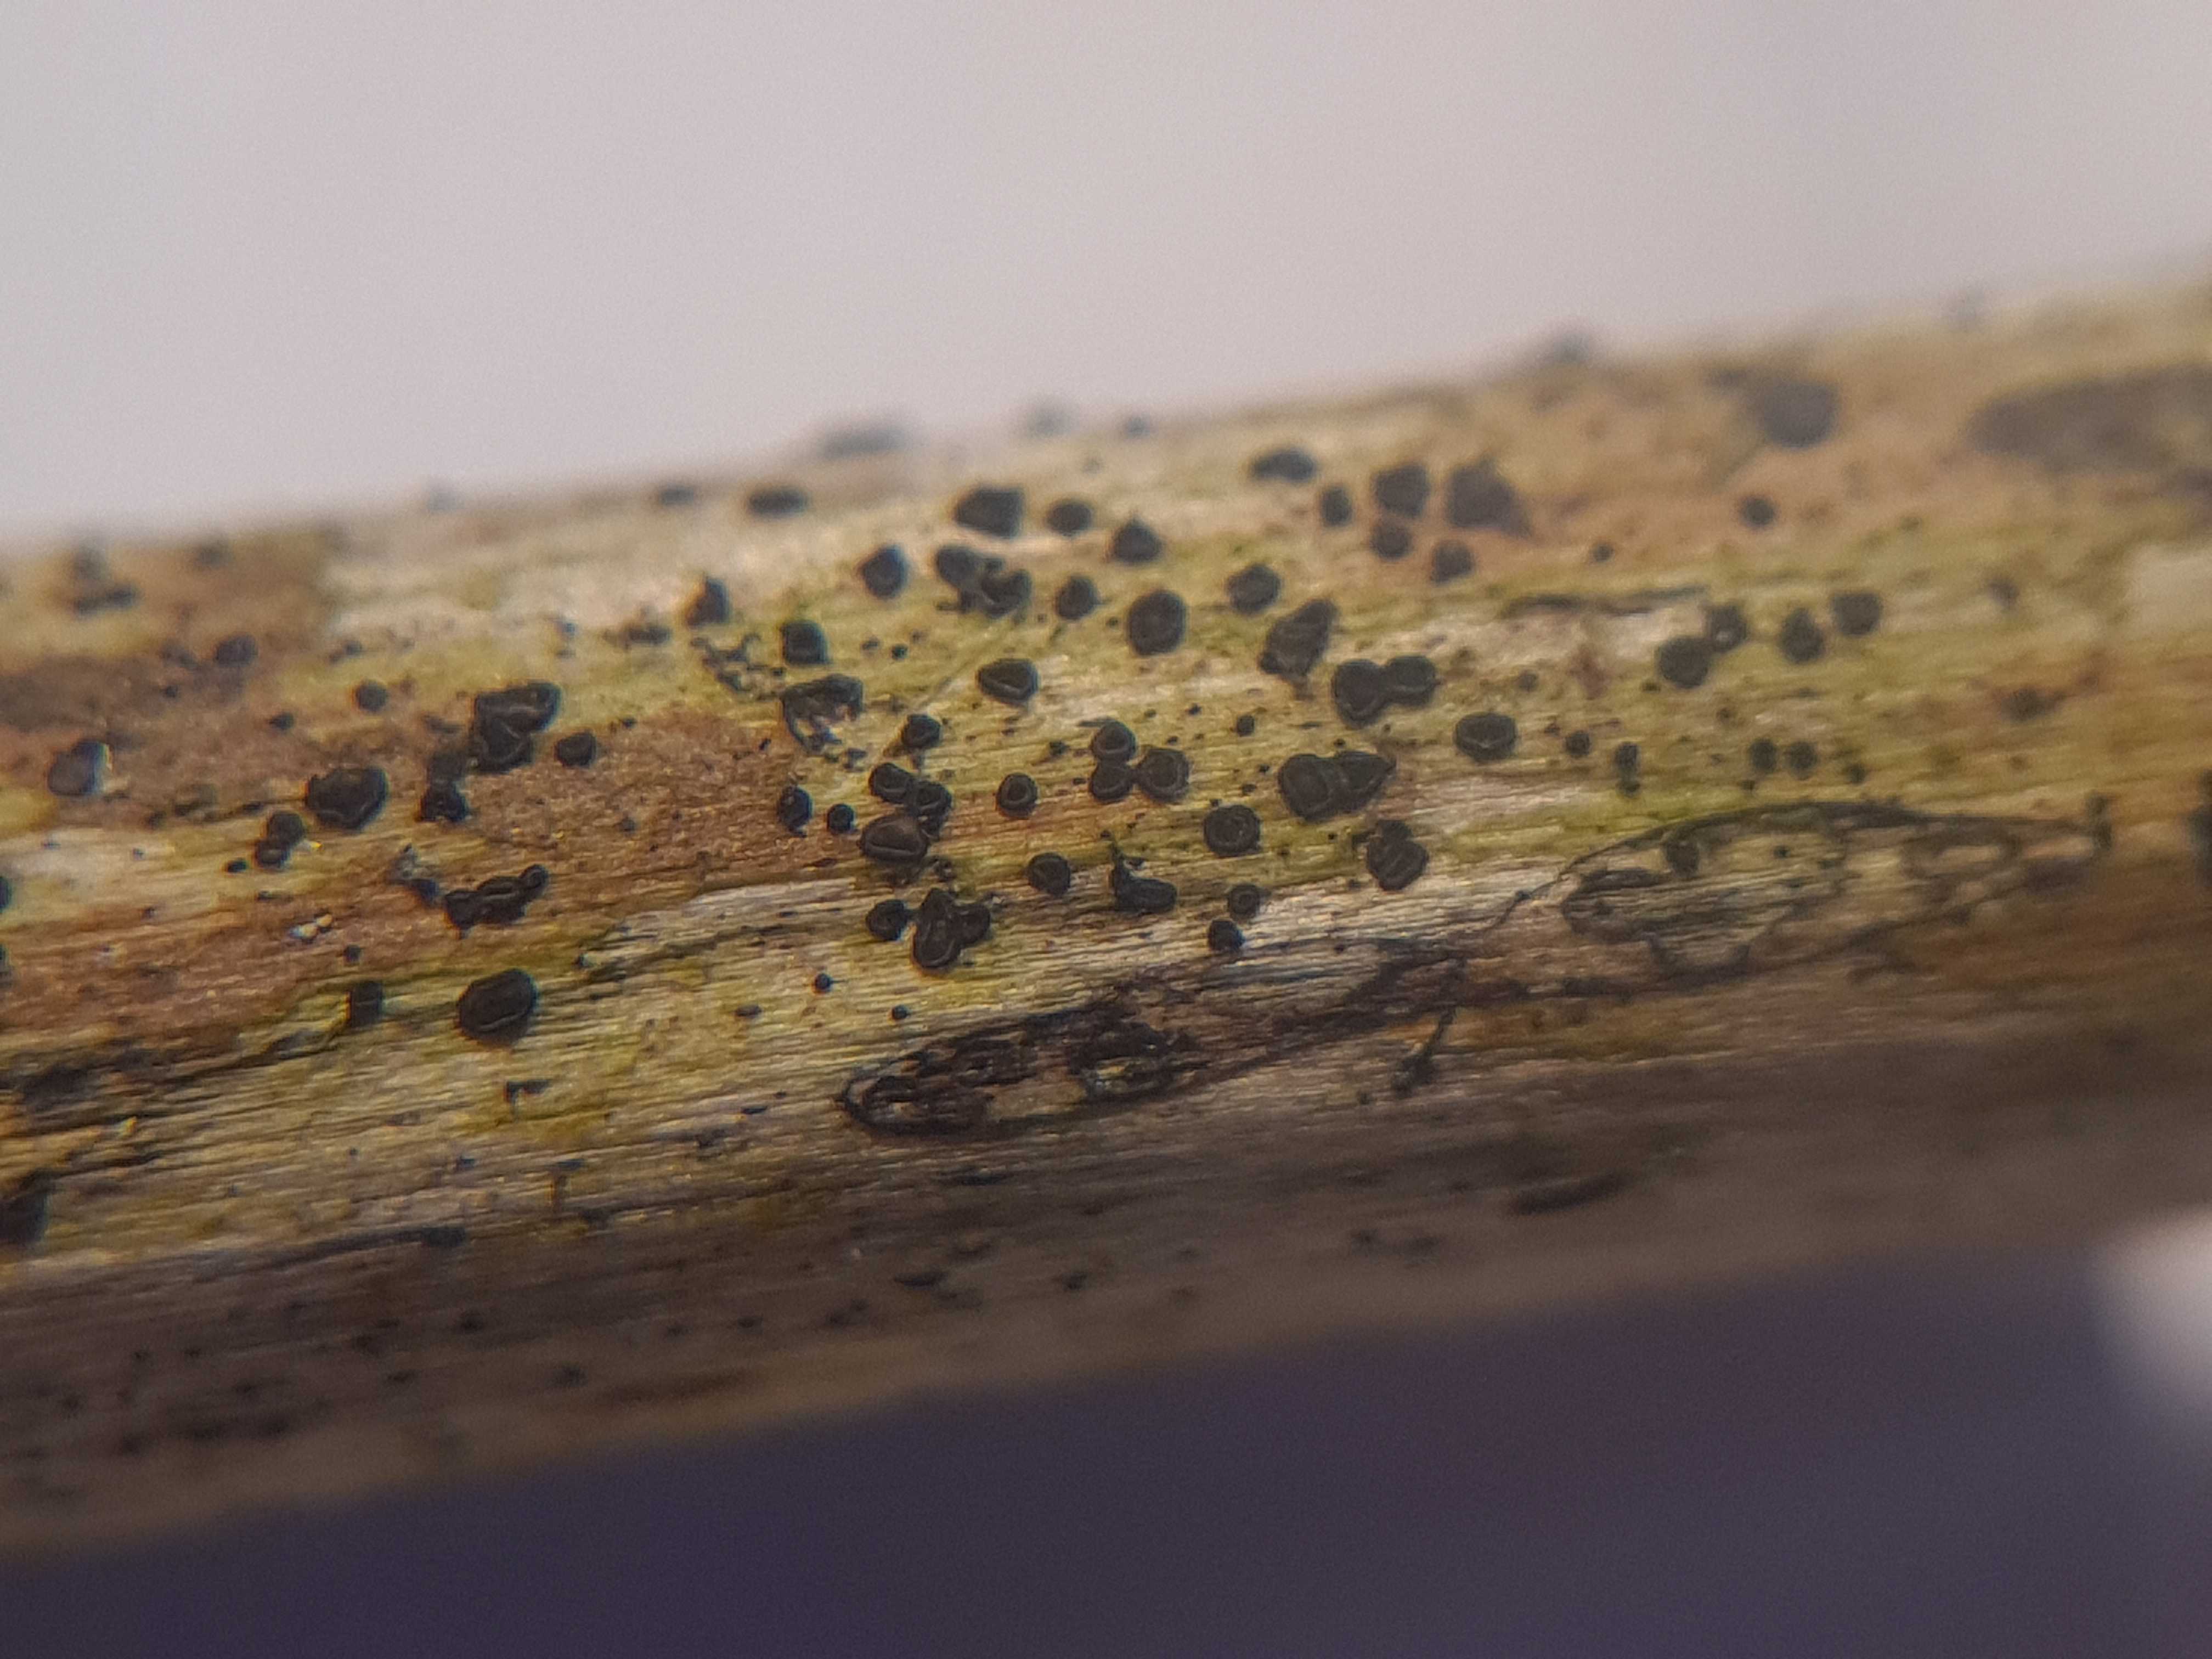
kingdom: Fungi
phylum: Ascomycota
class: Leotiomycetes
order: Helotiales
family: Ploettnerulaceae
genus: Pyrenopeziza
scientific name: Pyrenopeziza urticicola
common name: nælde-kerneskive
